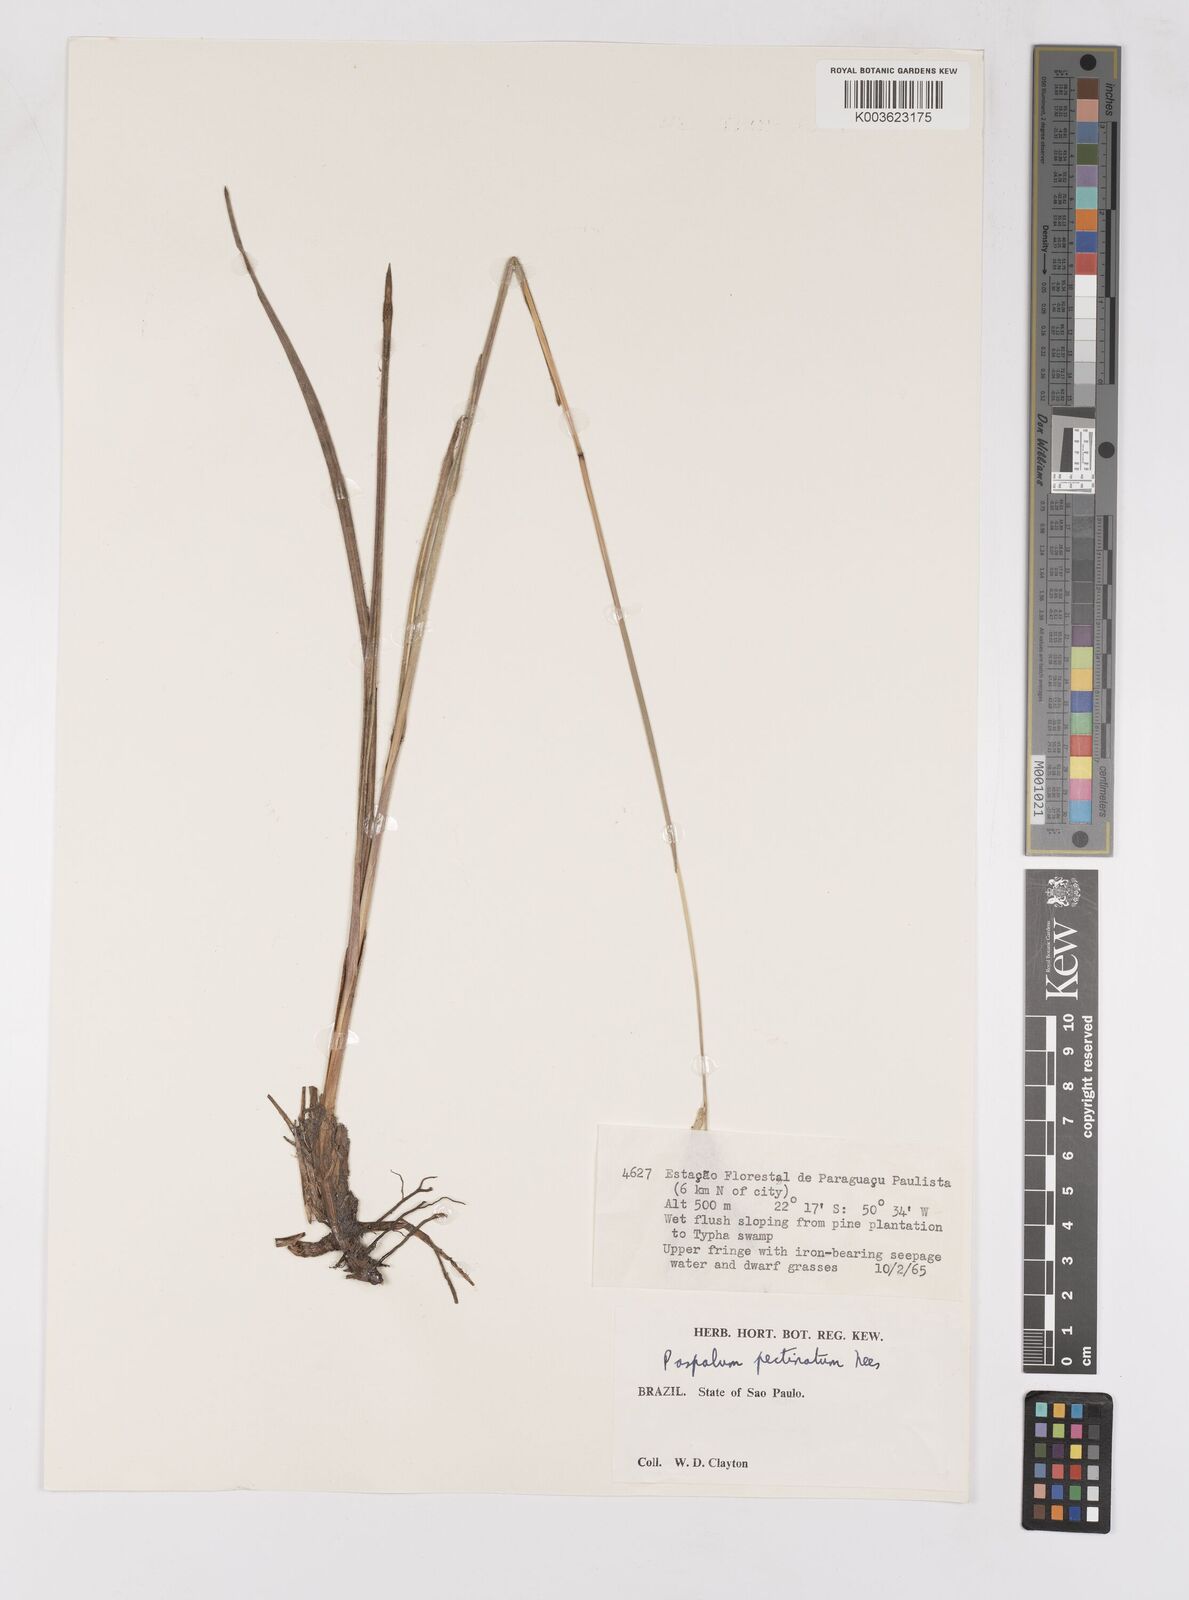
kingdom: Plantae
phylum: Tracheophyta
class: Liliopsida
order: Poales
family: Poaceae
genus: Paspalum
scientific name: Paspalum cordatum
